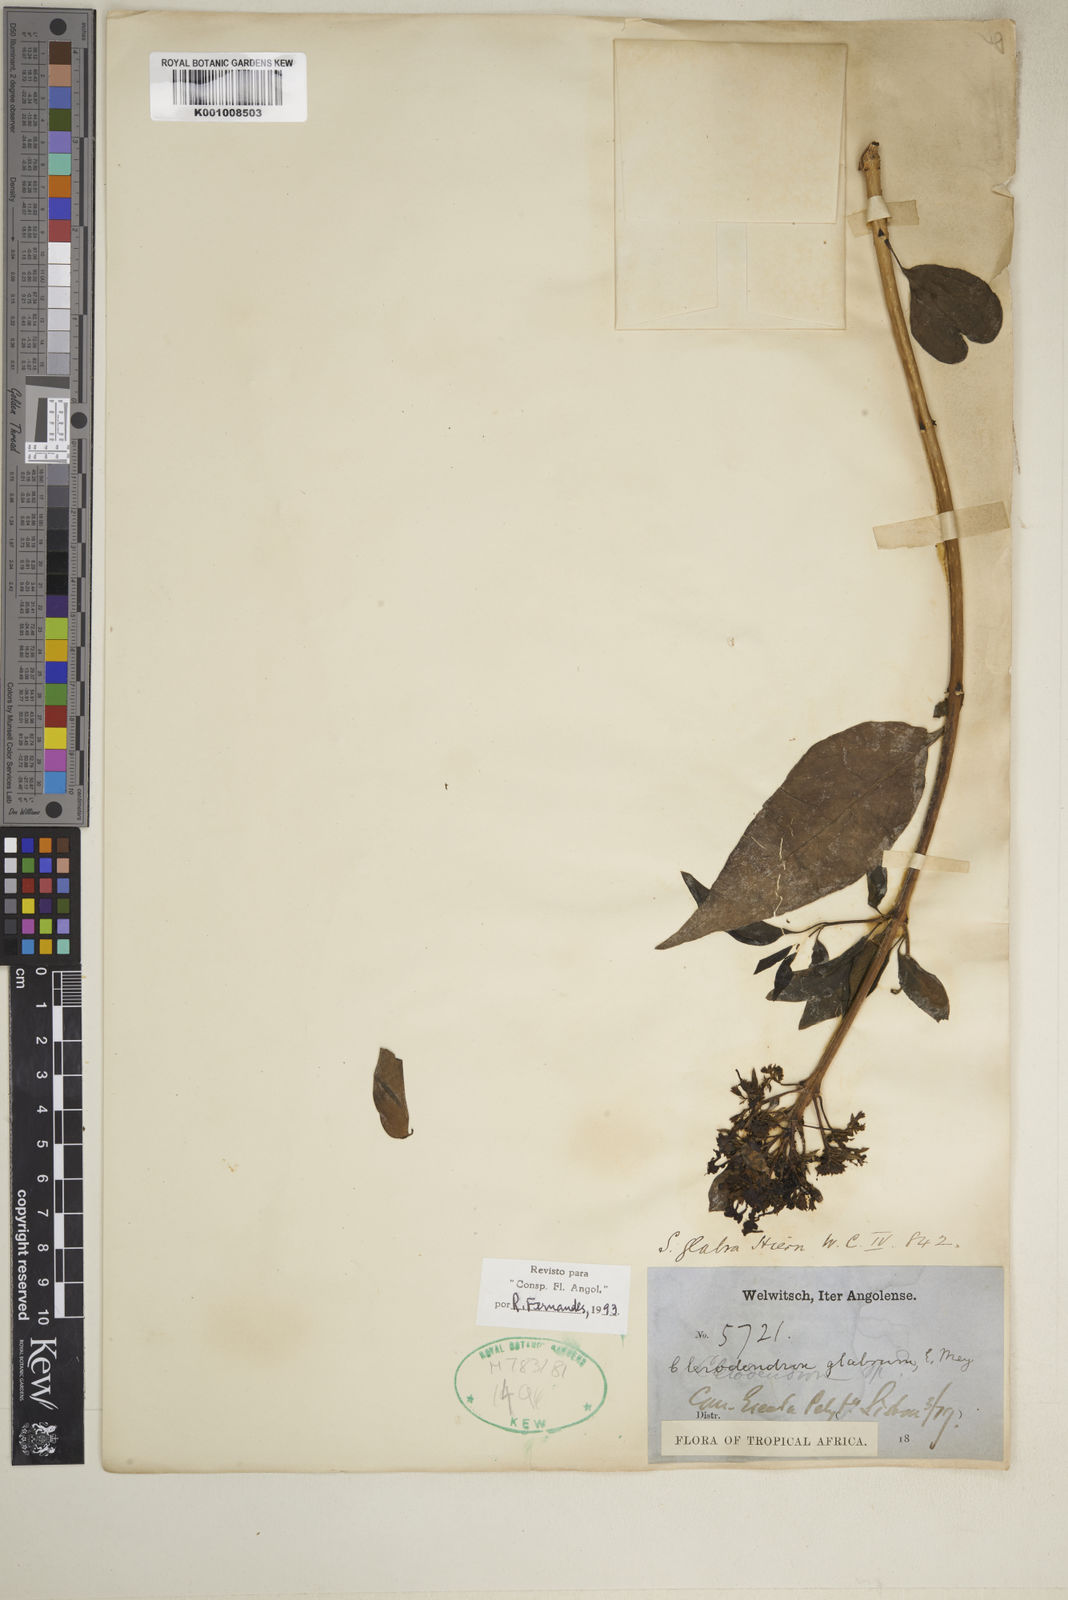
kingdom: Plantae
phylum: Tracheophyta
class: Magnoliopsida
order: Lamiales
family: Lamiaceae
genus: Volkameria
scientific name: Volkameria glabra
